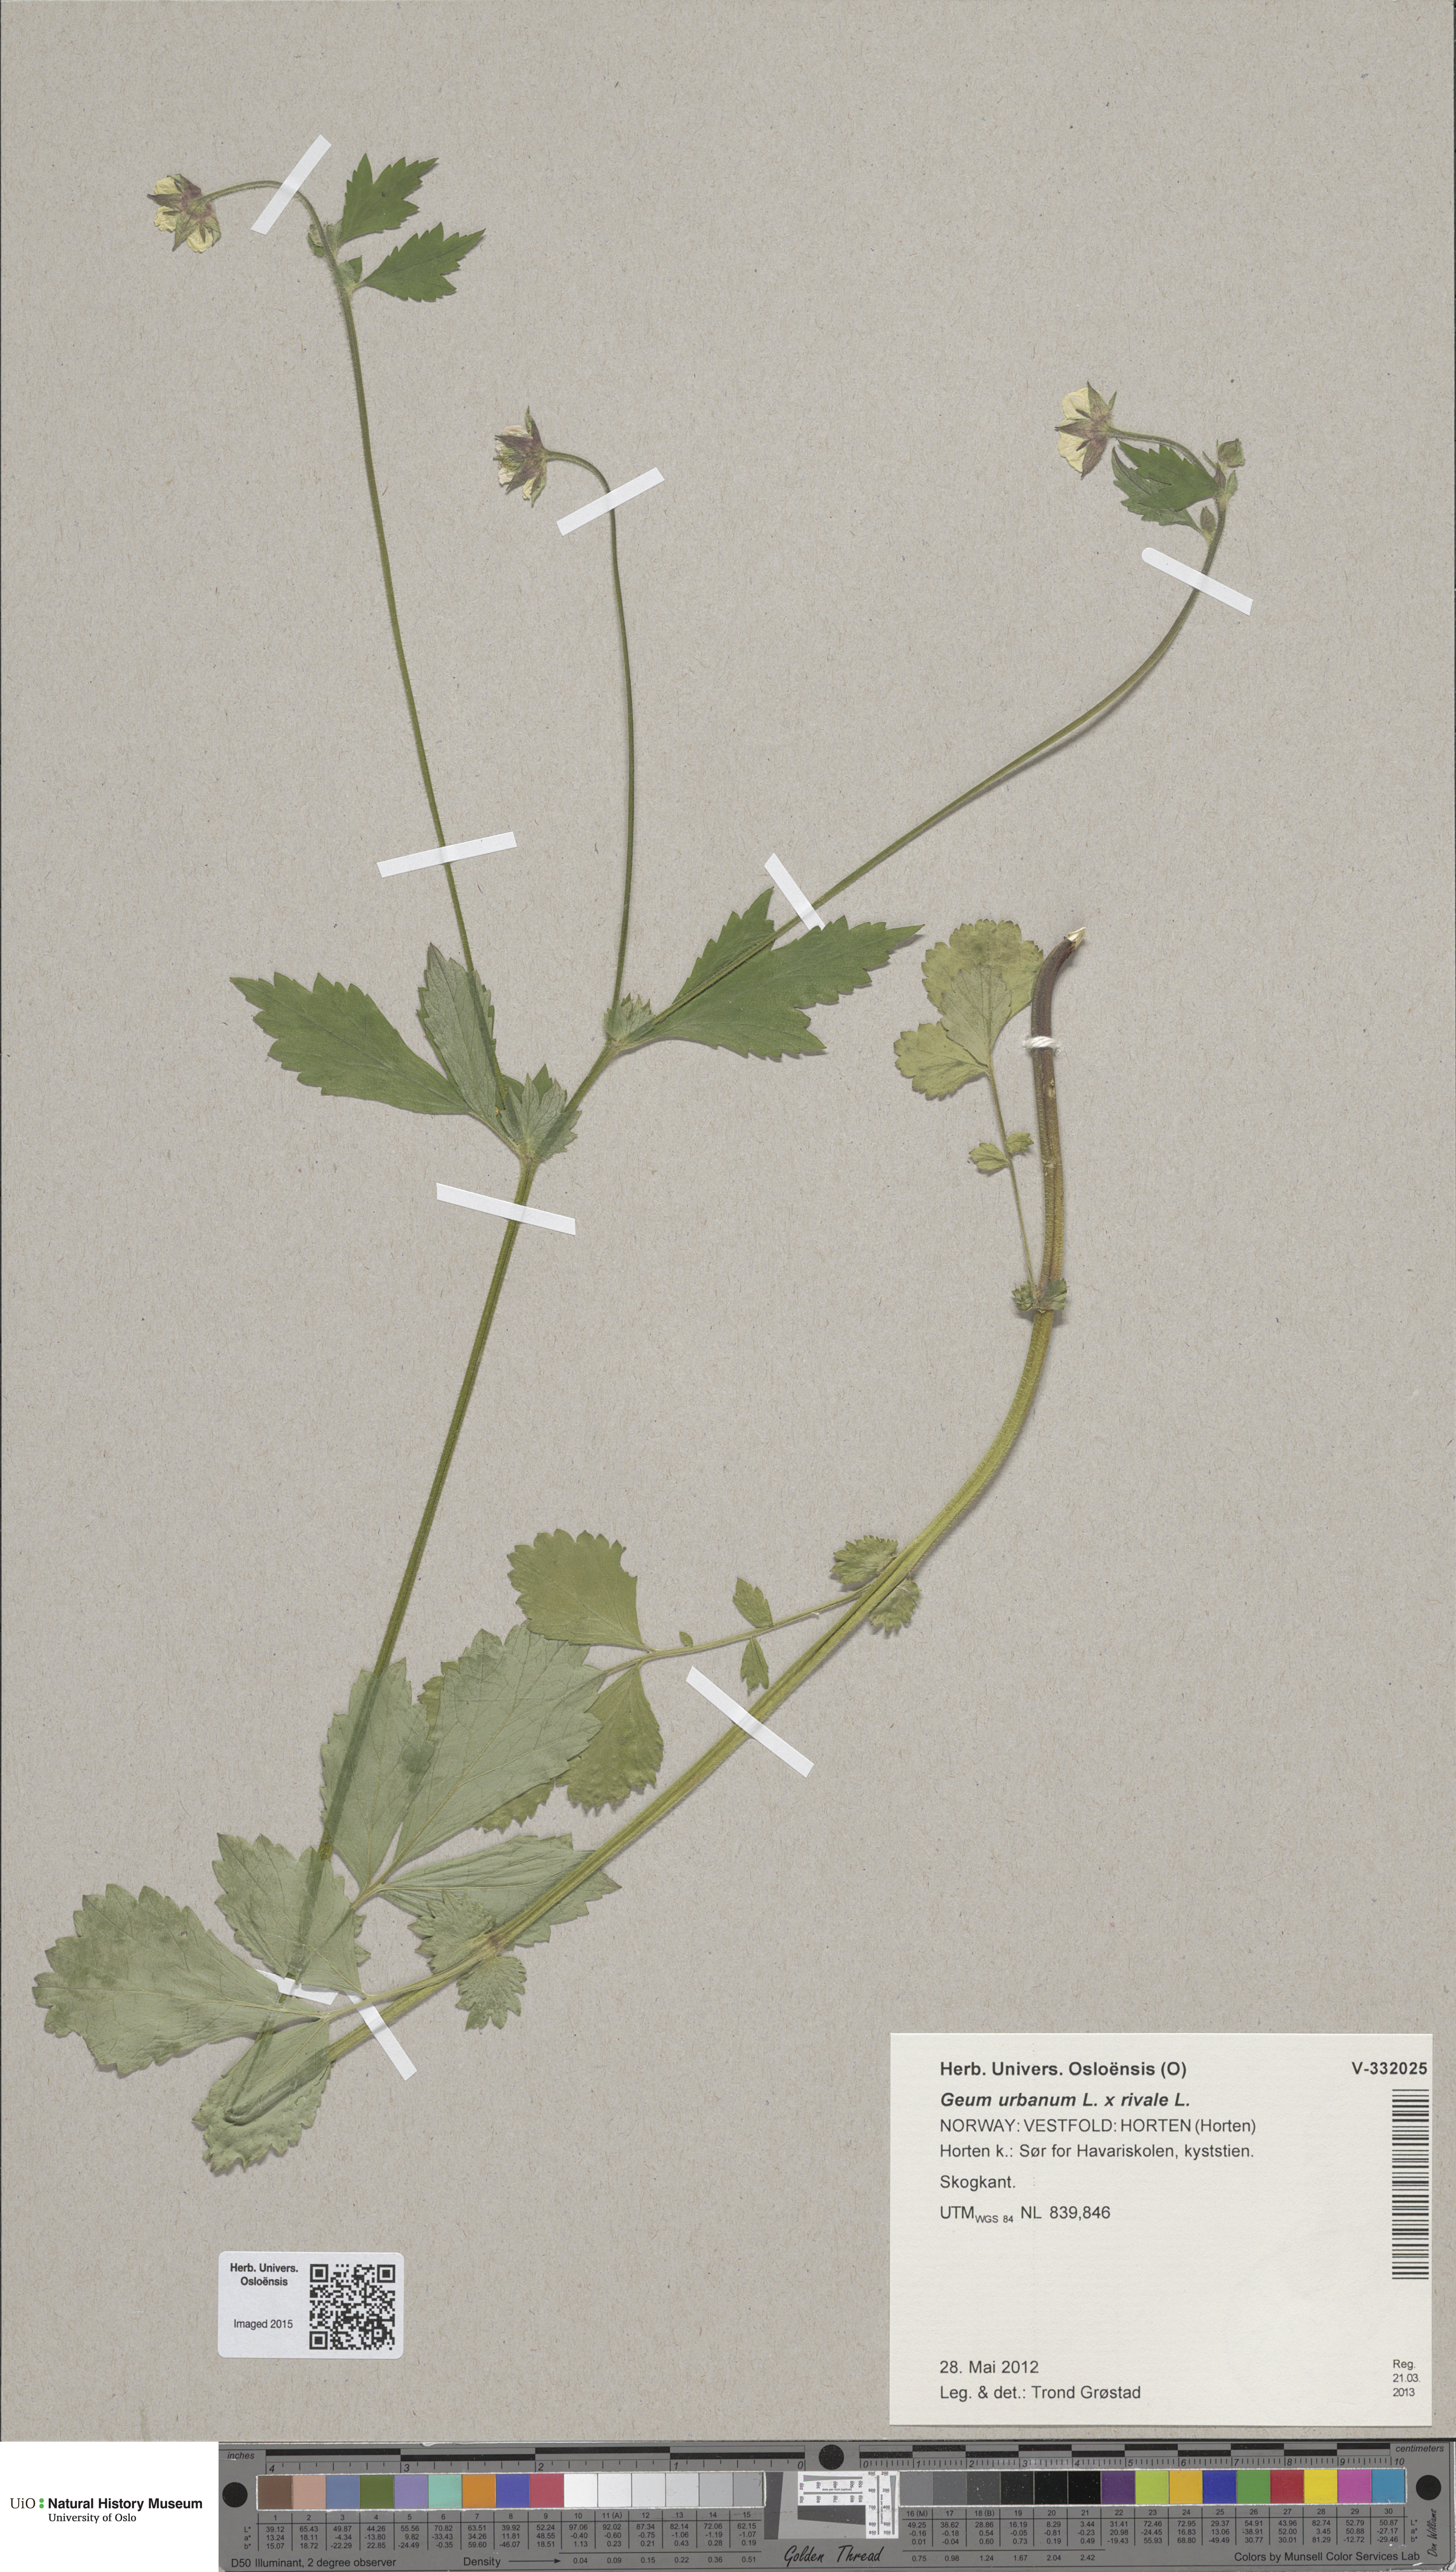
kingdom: Plantae
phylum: Tracheophyta
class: Magnoliopsida
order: Rosales
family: Rosaceae
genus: Geum
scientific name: Geum
